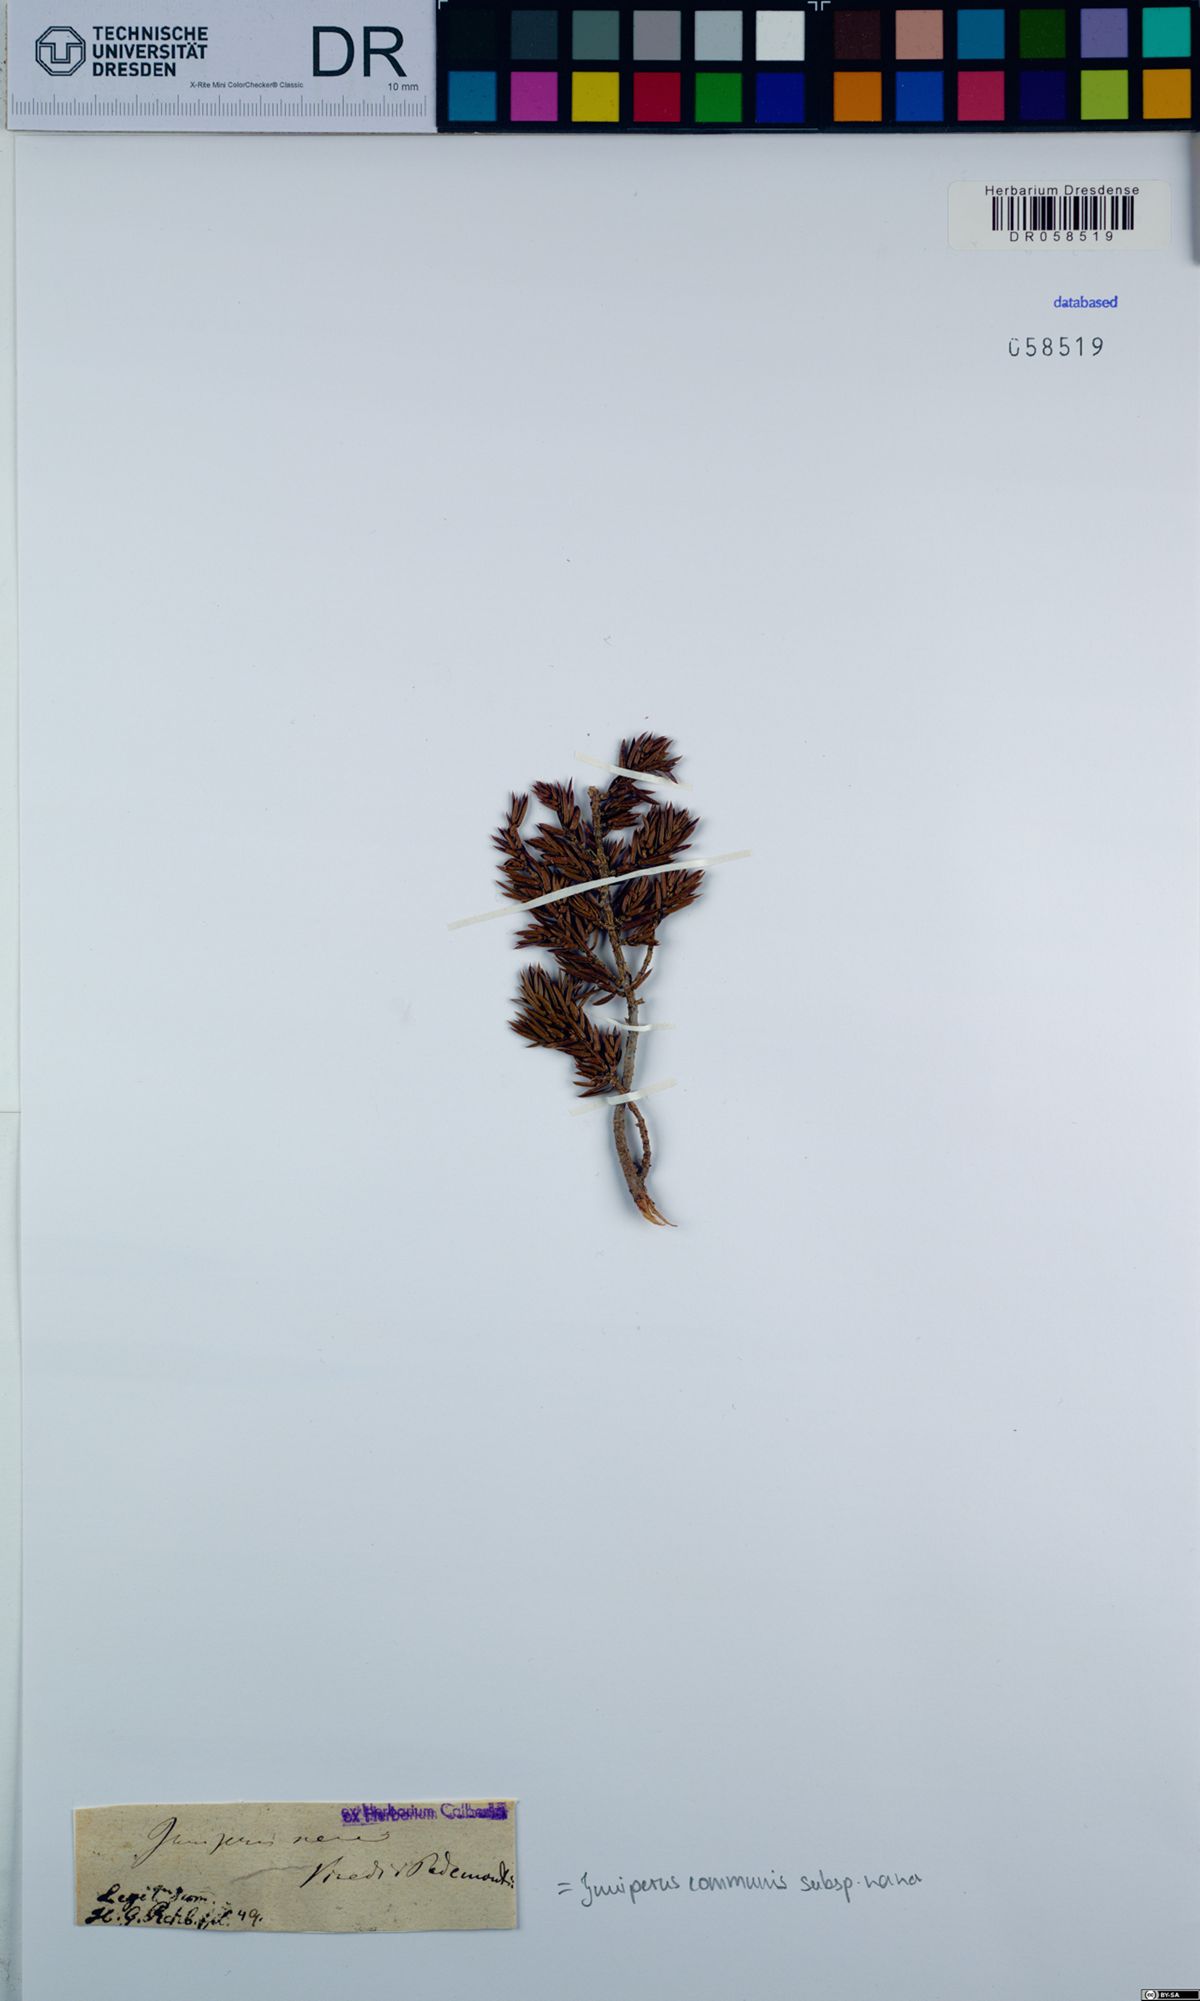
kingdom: Plantae
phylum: Tracheophyta
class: Pinopsida
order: Pinales
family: Cupressaceae
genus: Juniperus
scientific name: Juniperus communis
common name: Common juniper
